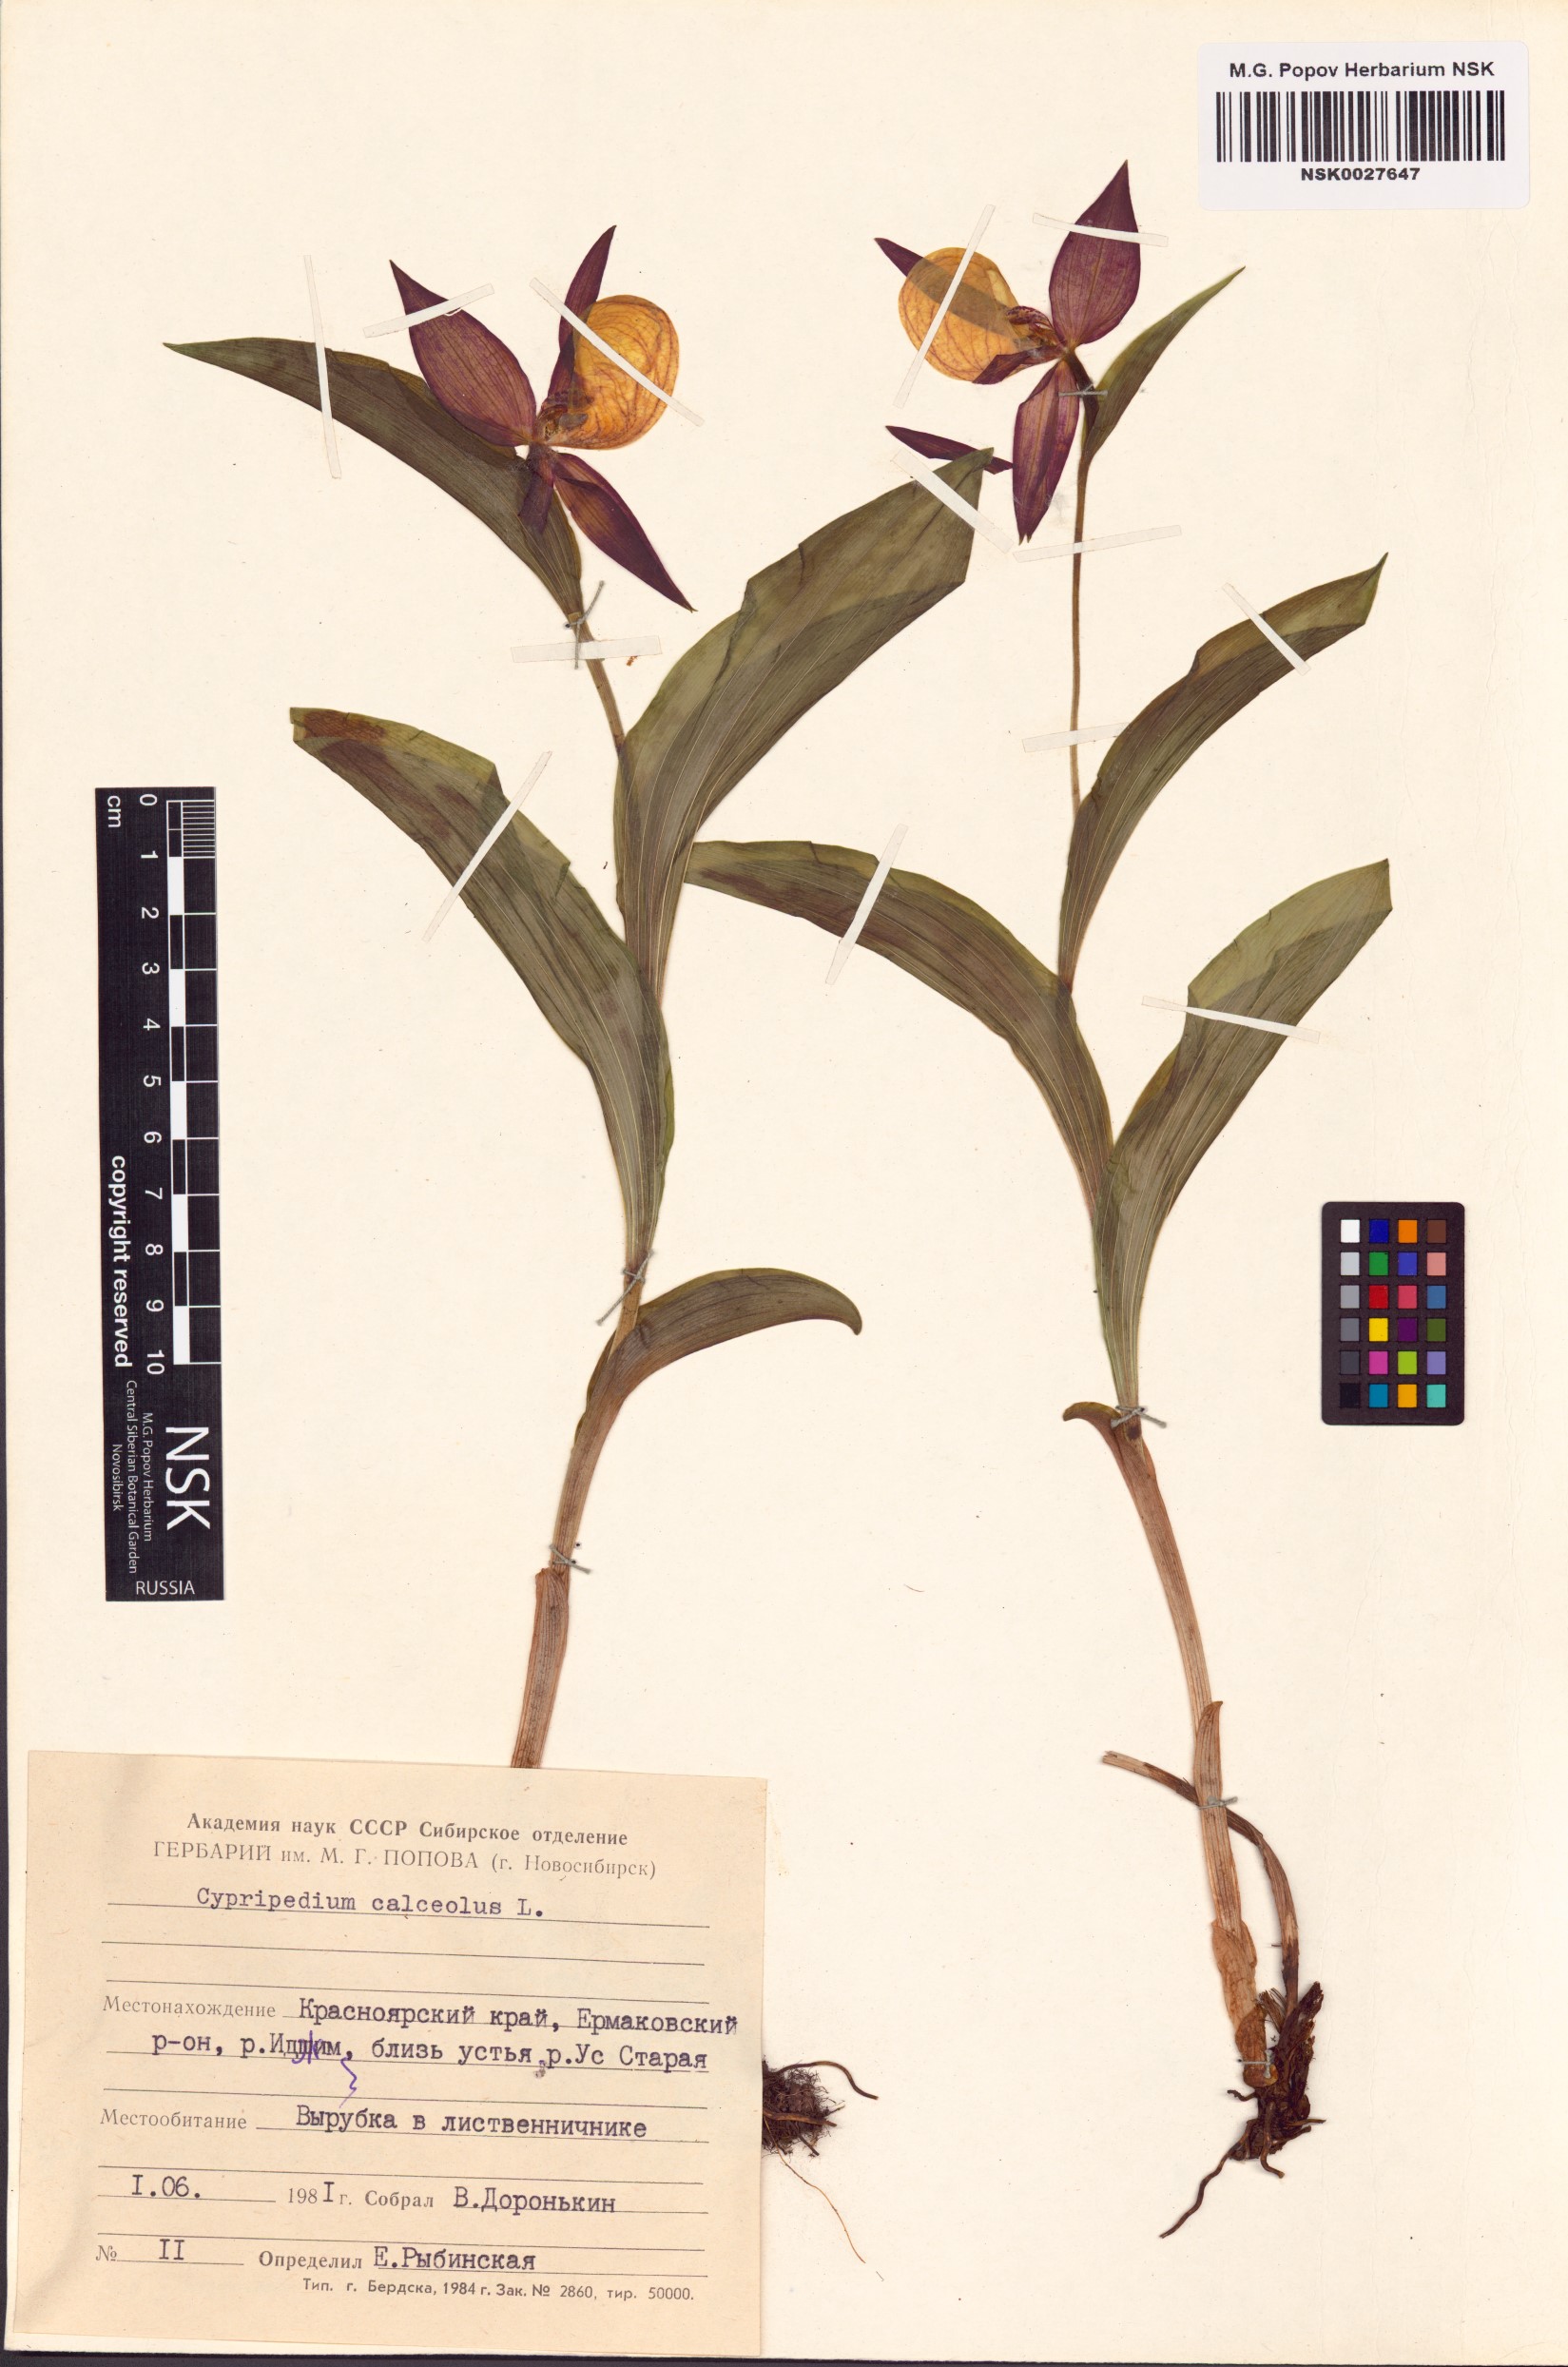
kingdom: Plantae
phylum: Tracheophyta
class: Liliopsida
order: Asparagales
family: Orchidaceae
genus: Cypripedium
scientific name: Cypripedium calceolus
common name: Lady's-slipper
